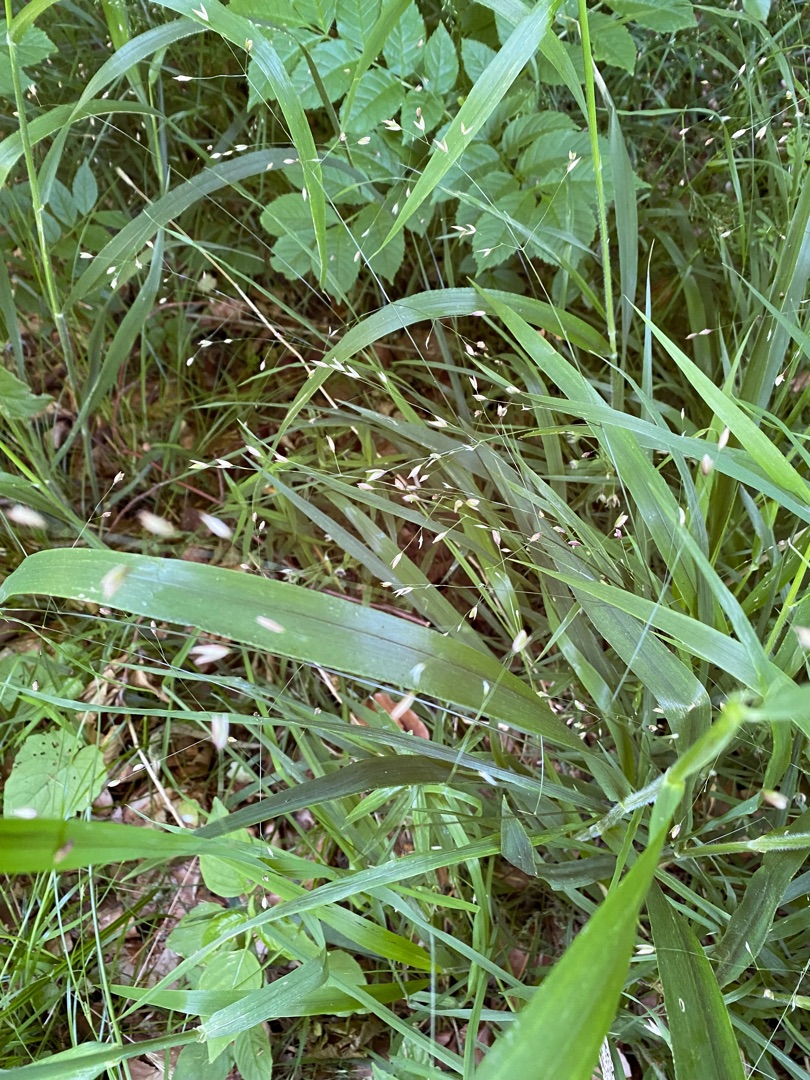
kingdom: Plantae
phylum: Tracheophyta
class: Liliopsida
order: Poales
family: Poaceae
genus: Melica
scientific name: Melica uniflora
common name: Enblomstret flitteraks
